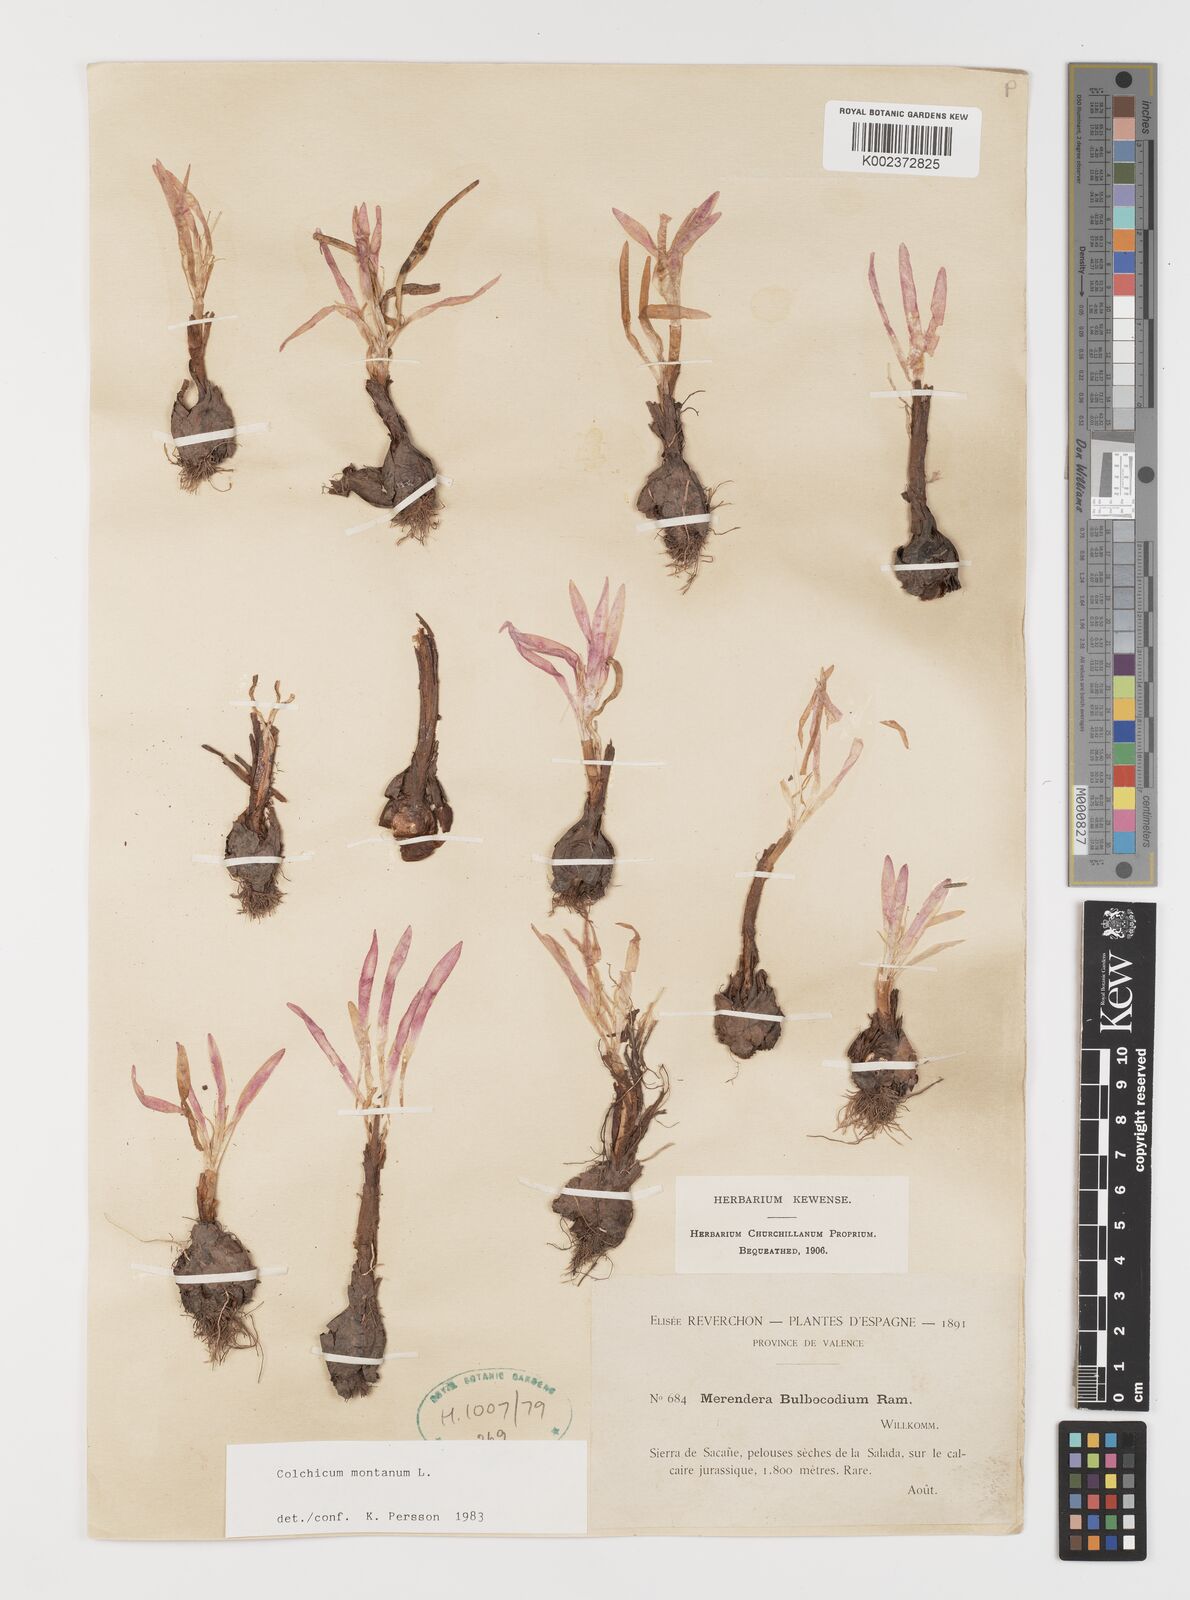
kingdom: Plantae
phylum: Tracheophyta
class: Liliopsida
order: Liliales
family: Colchicaceae
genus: Colchicum
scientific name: Colchicum montanum
